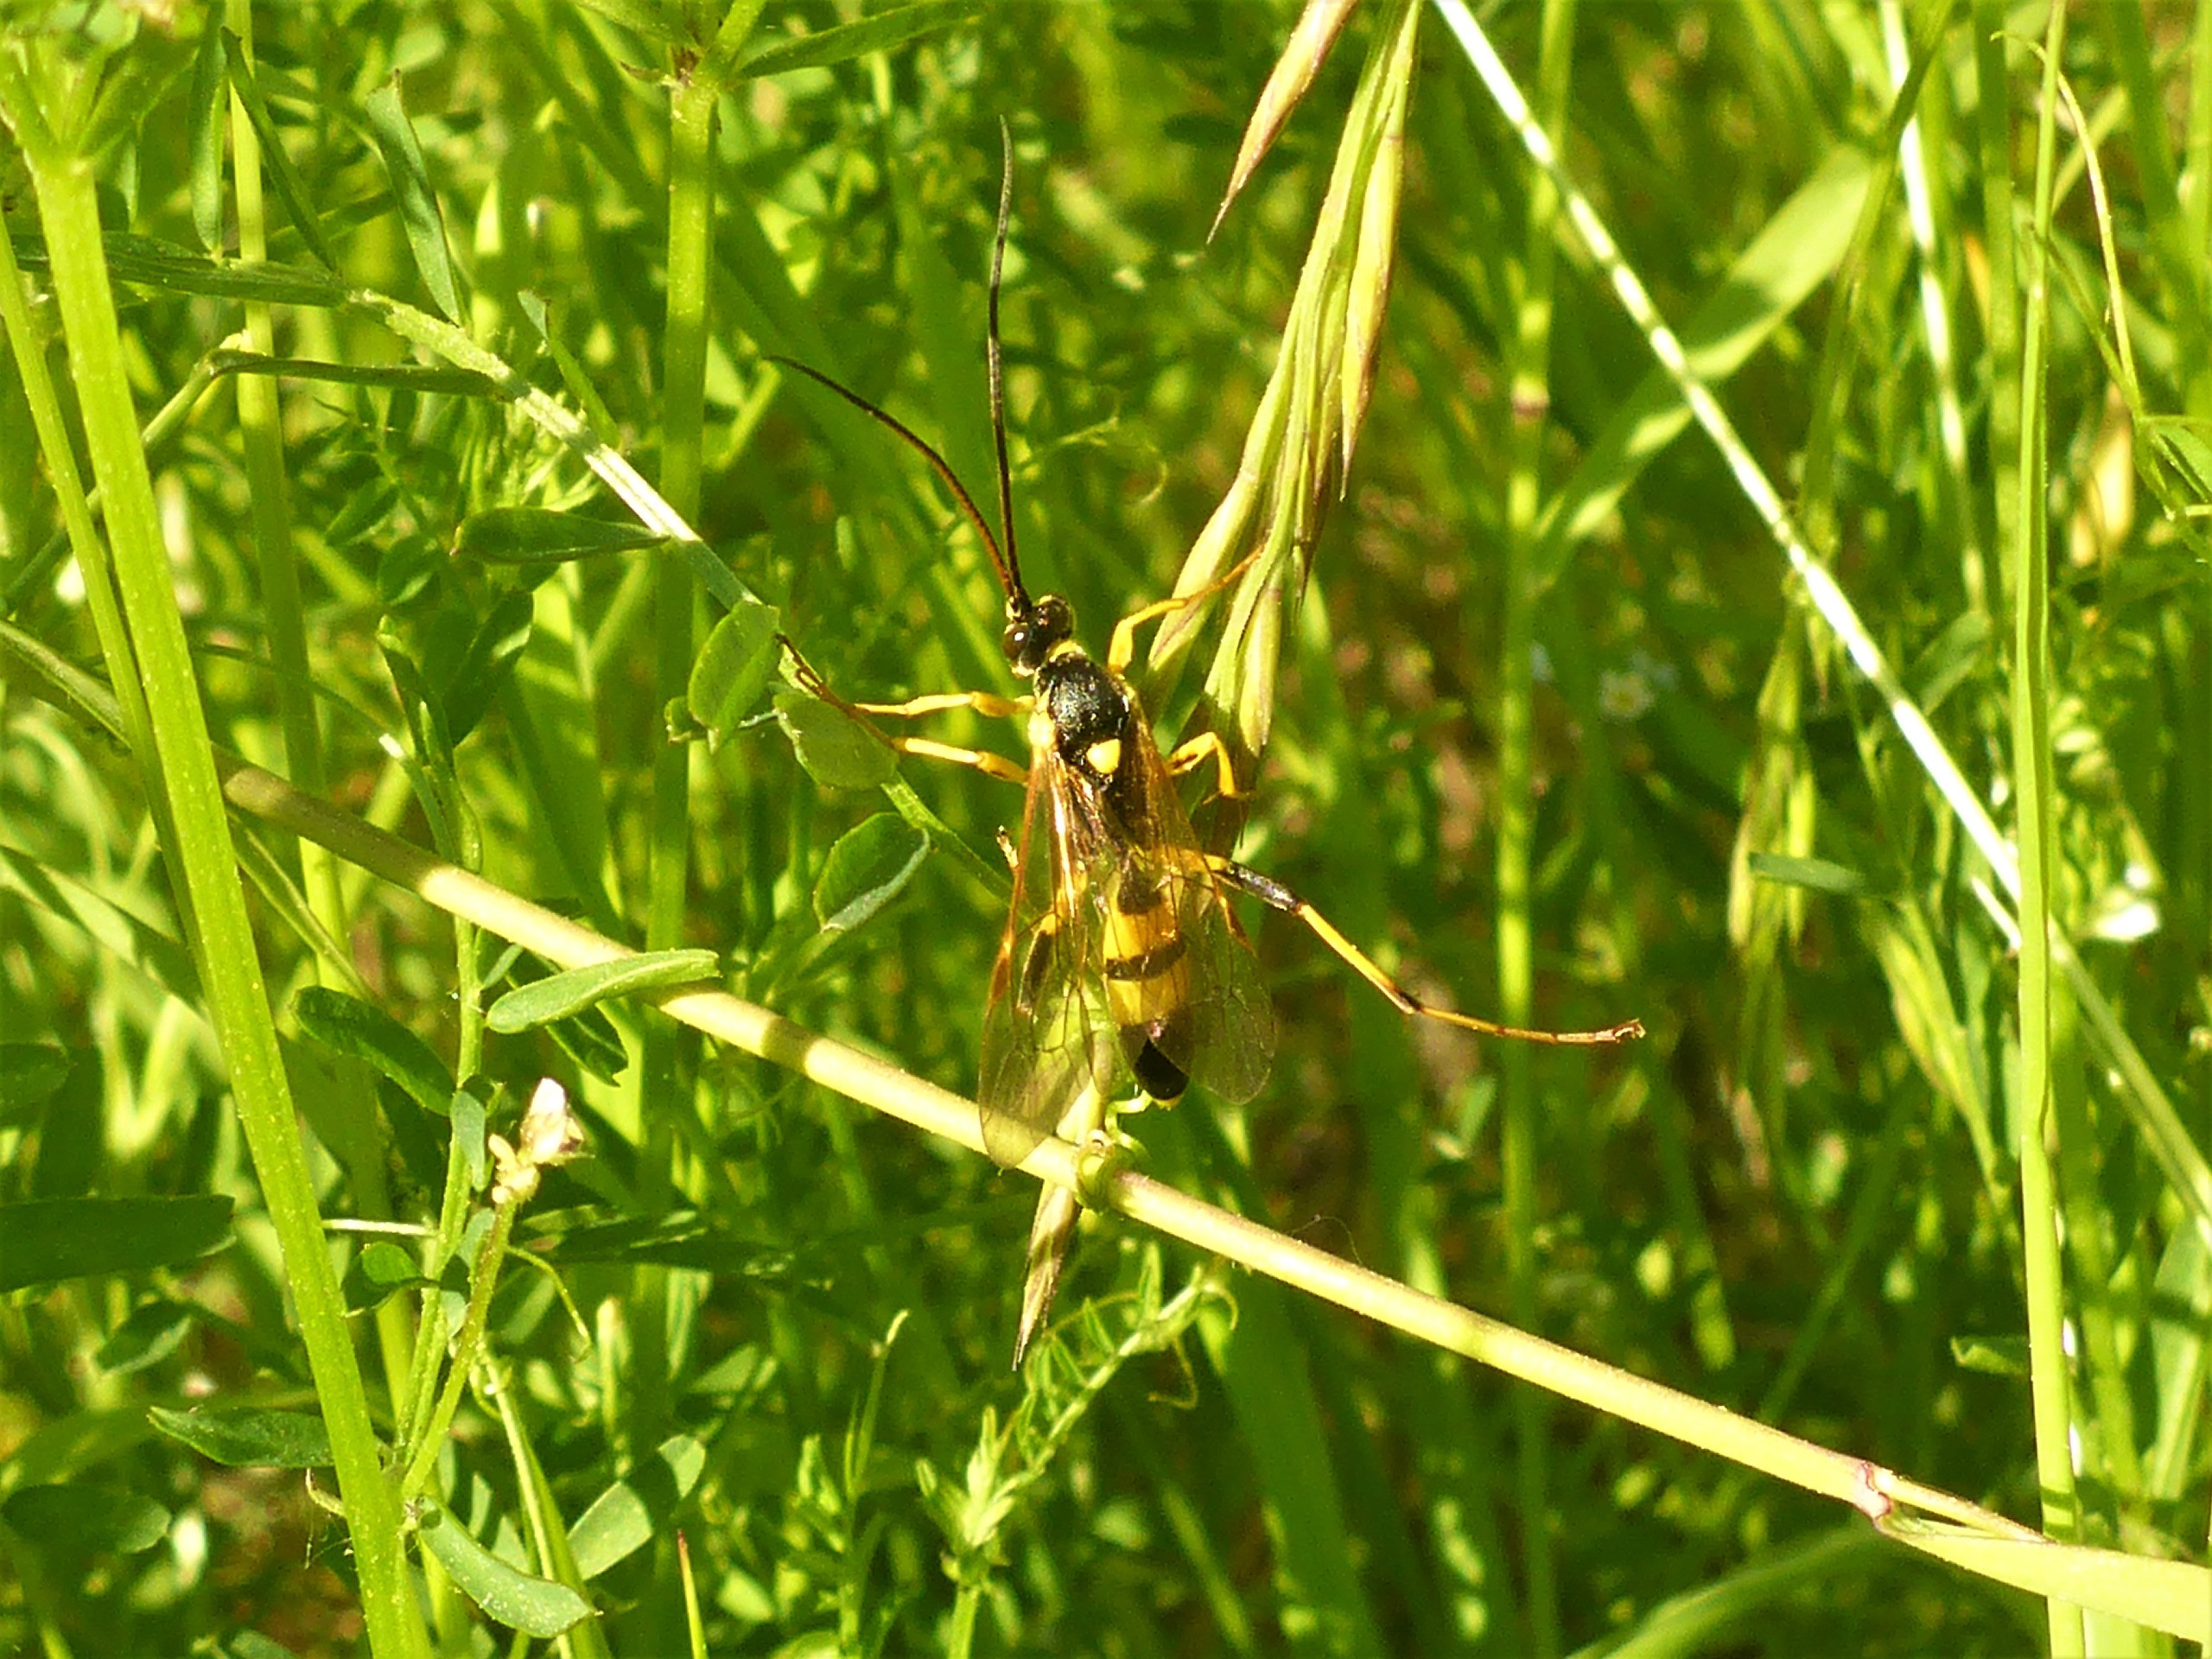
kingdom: Animalia
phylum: Arthropoda
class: Insecta
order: Hymenoptera
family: Ichneumonidae
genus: Amblyteles
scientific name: Amblyteles armatorius
